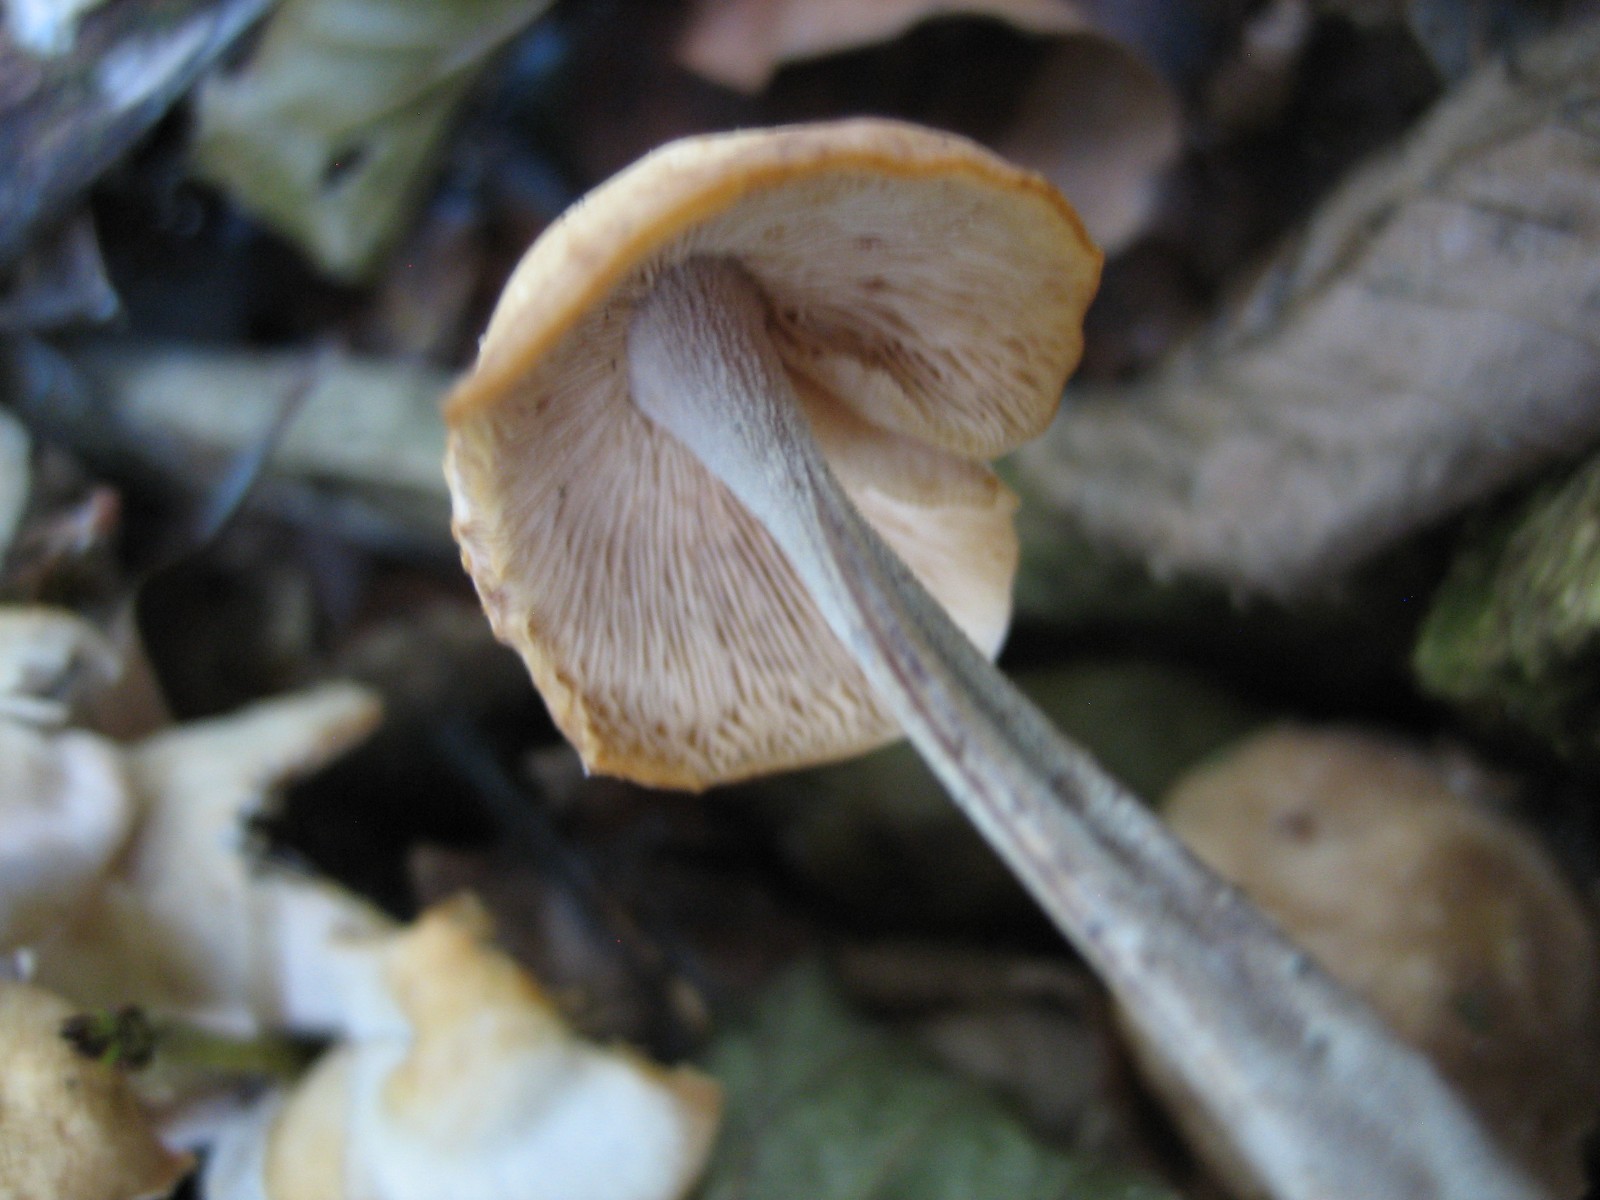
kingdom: Fungi
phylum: Basidiomycota
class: Agaricomycetes
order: Agaricales
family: Omphalotaceae
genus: Collybiopsis
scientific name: Collybiopsis confluens
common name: knippe-fladhat
